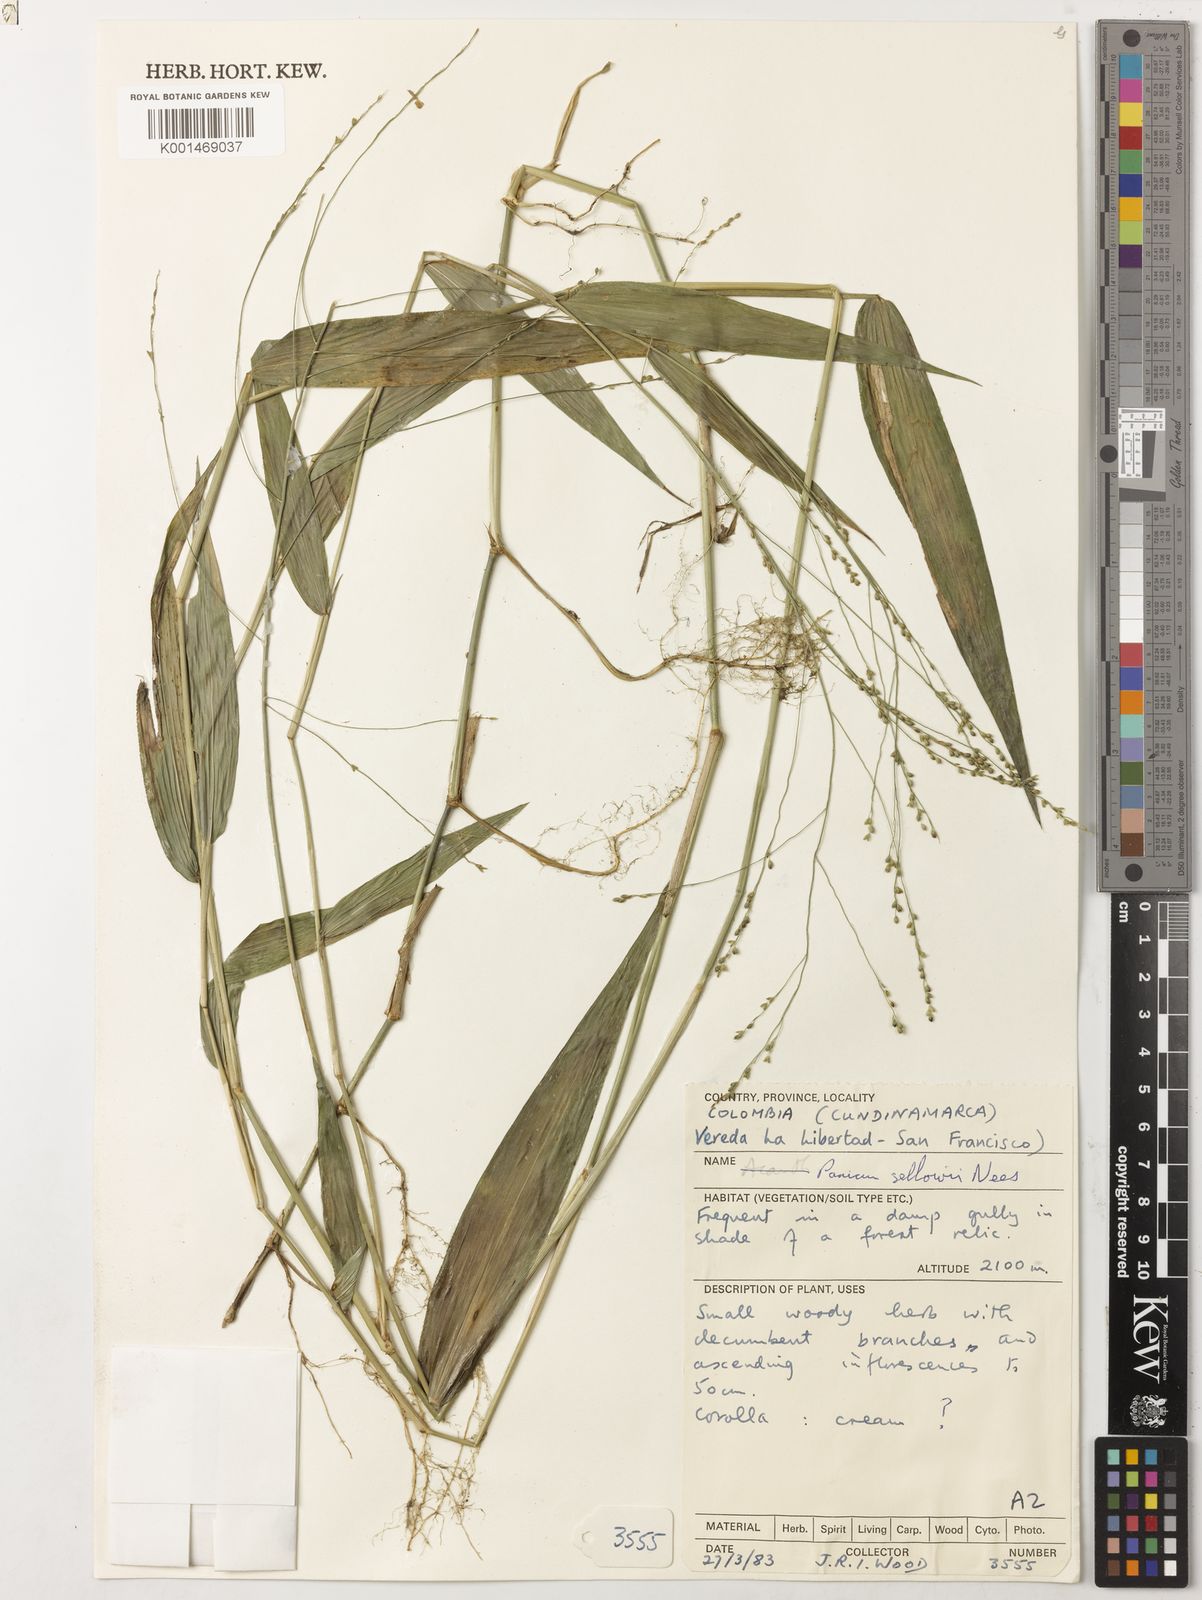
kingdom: Plantae
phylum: Tracheophyta
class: Liliopsida
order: Poales
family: Poaceae
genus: Panicum
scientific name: Panicum sellowii
